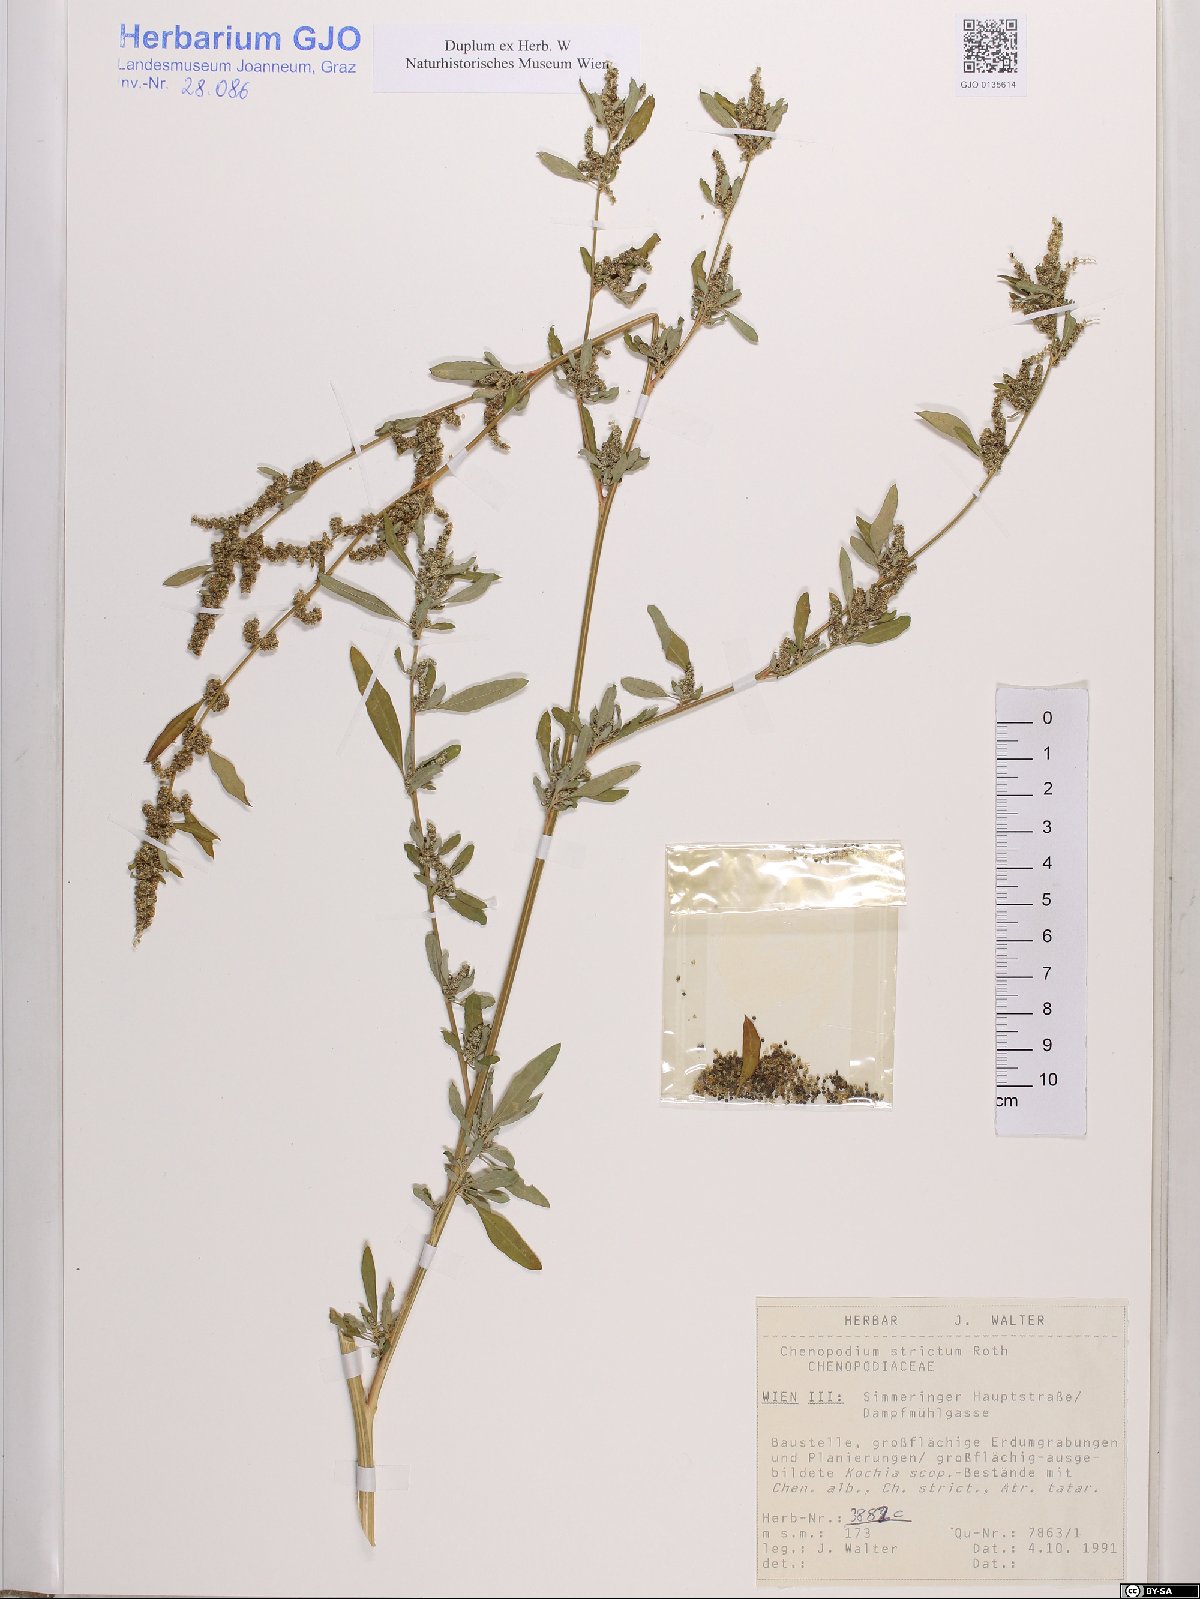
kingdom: Plantae
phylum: Tracheophyta
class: Magnoliopsida
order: Caryophyllales
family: Amaranthaceae
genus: Chenopodium
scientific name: Chenopodium album
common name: Fat-hen
